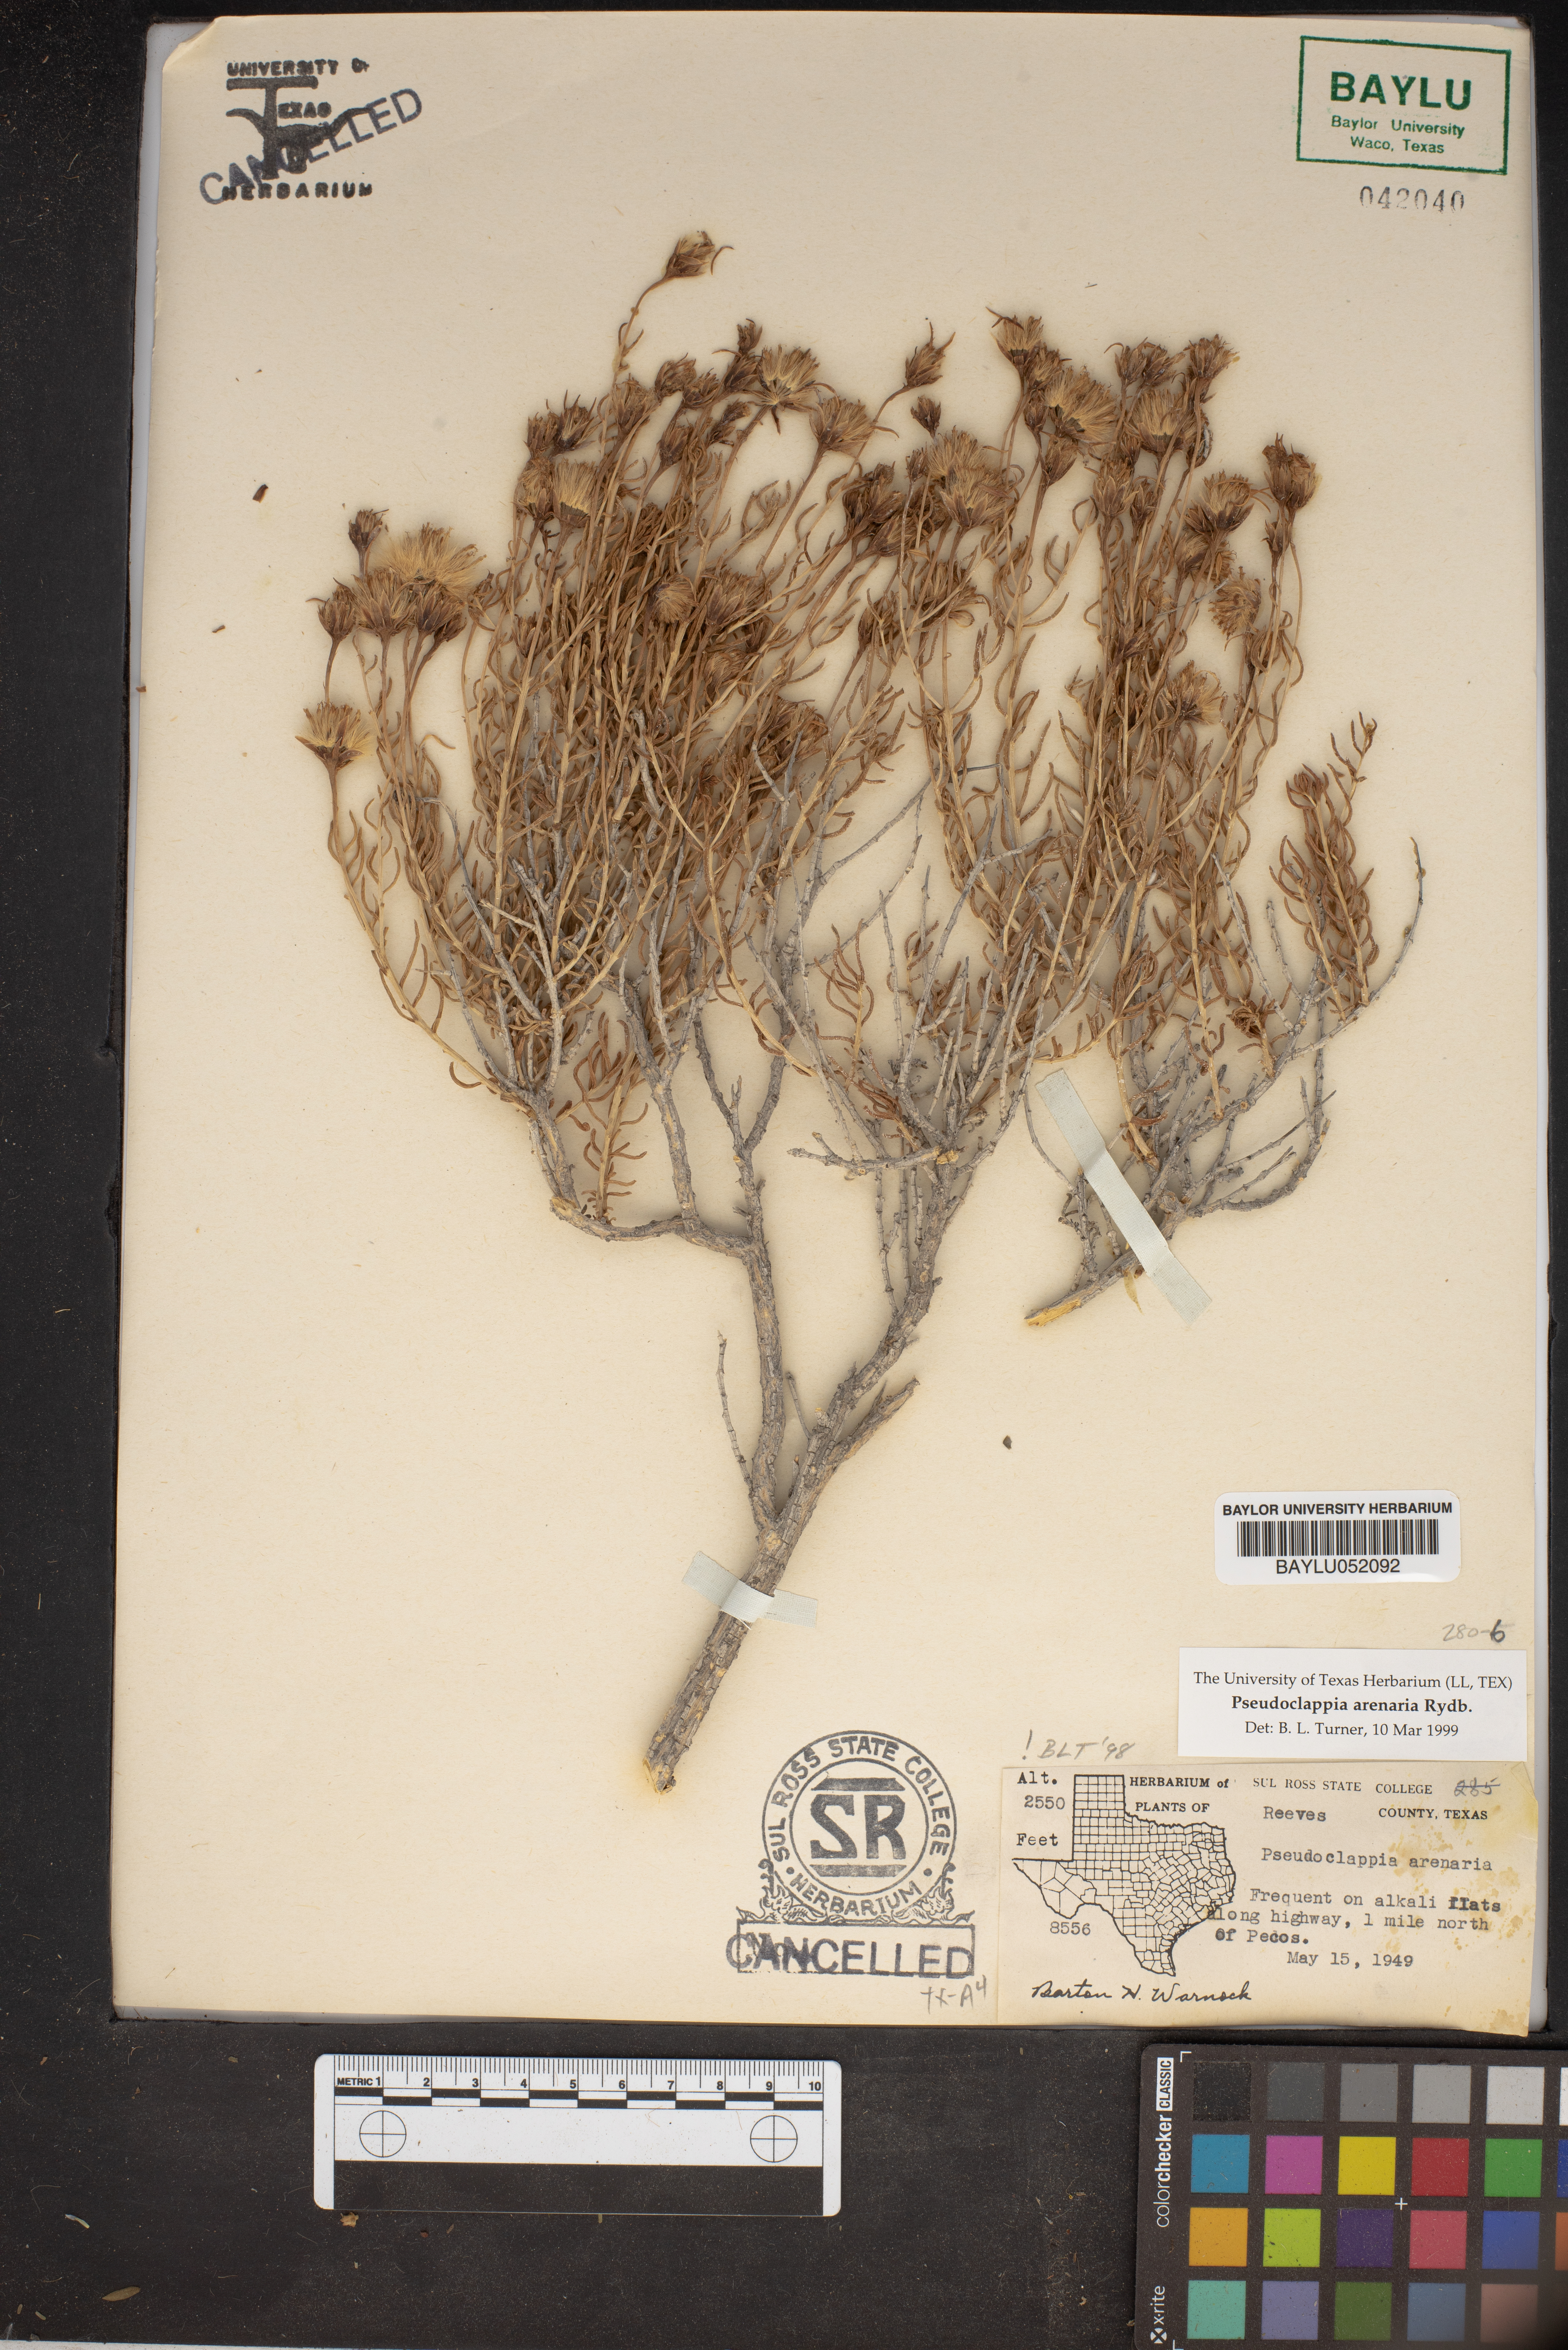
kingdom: Plantae
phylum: Tracheophyta
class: Magnoliopsida
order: Asterales
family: Asteraceae
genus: Pseudoclappia
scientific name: Pseudoclappia arenaria
